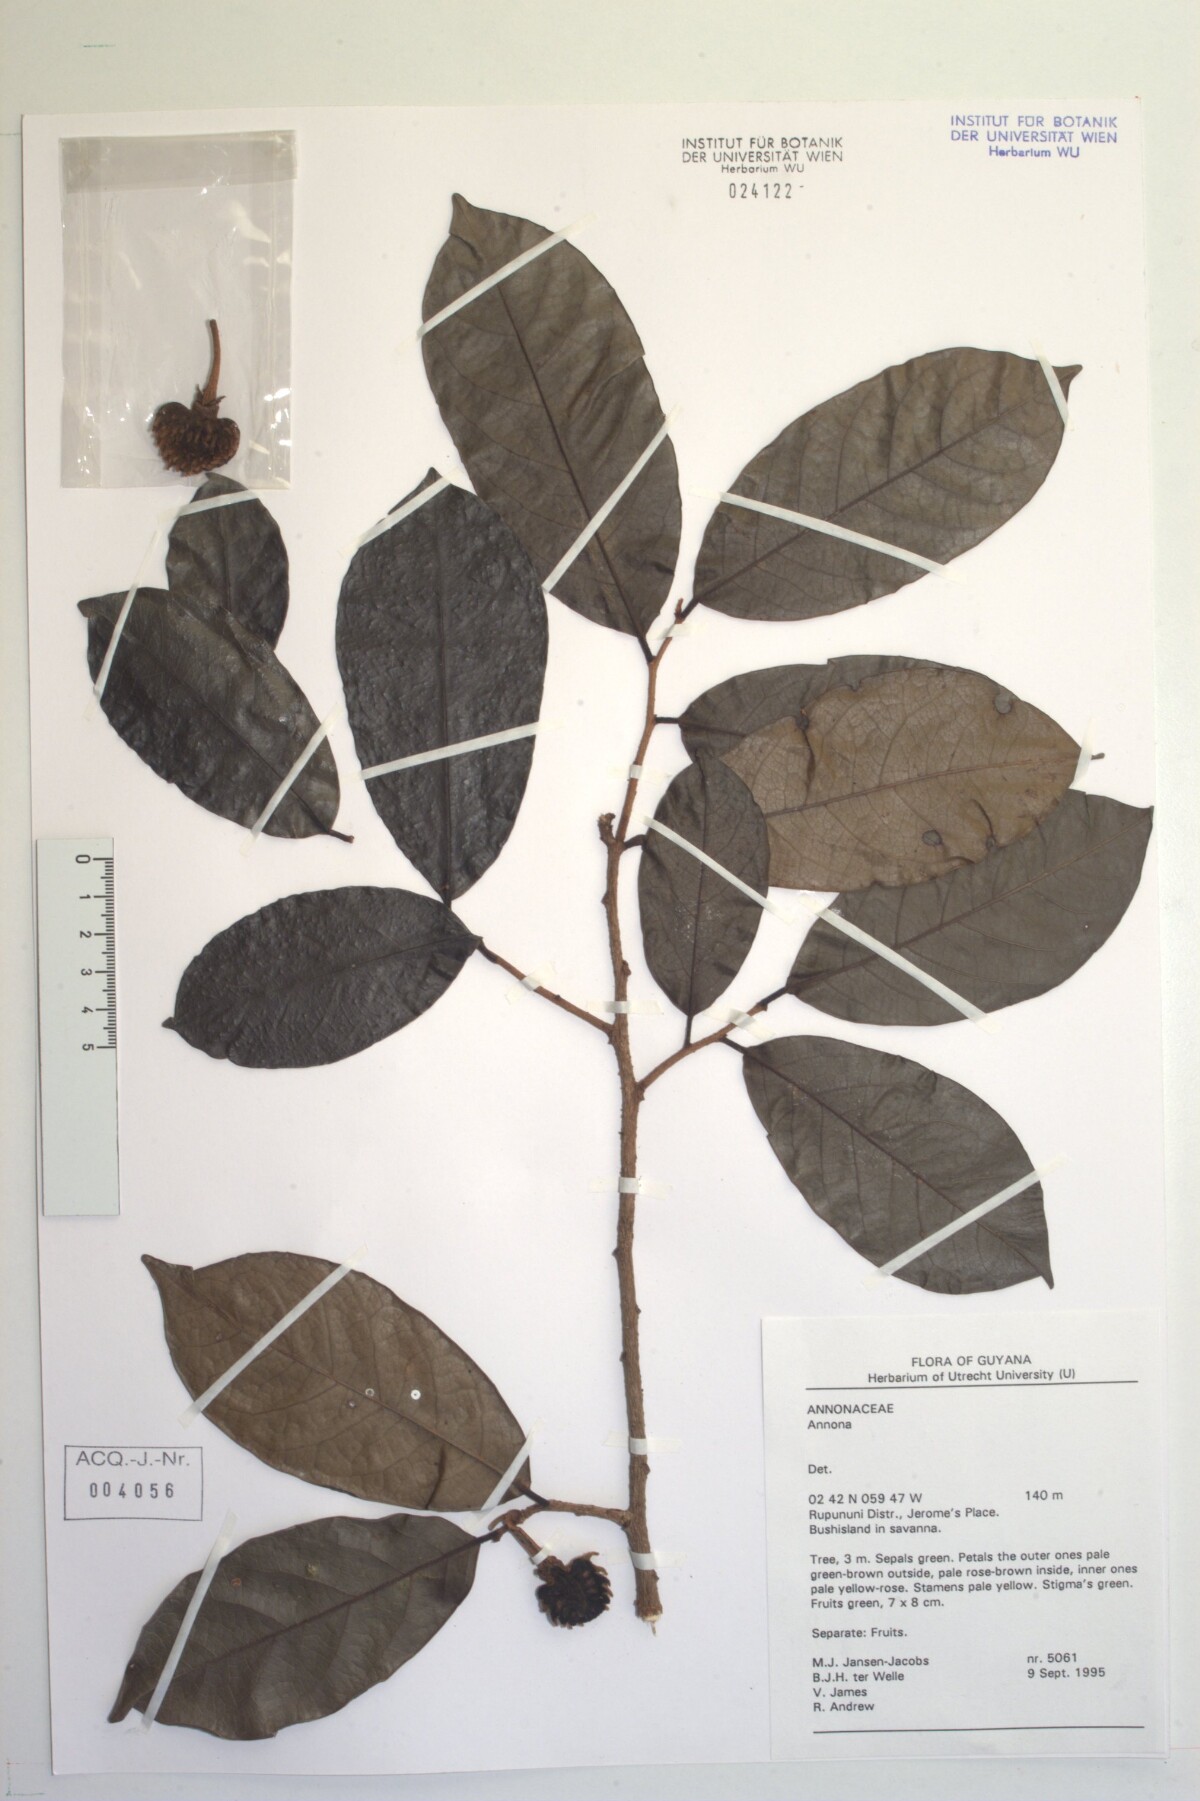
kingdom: Plantae
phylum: Tracheophyta
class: Magnoliopsida
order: Magnoliales
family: Annonaceae
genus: Annona
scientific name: Annona
